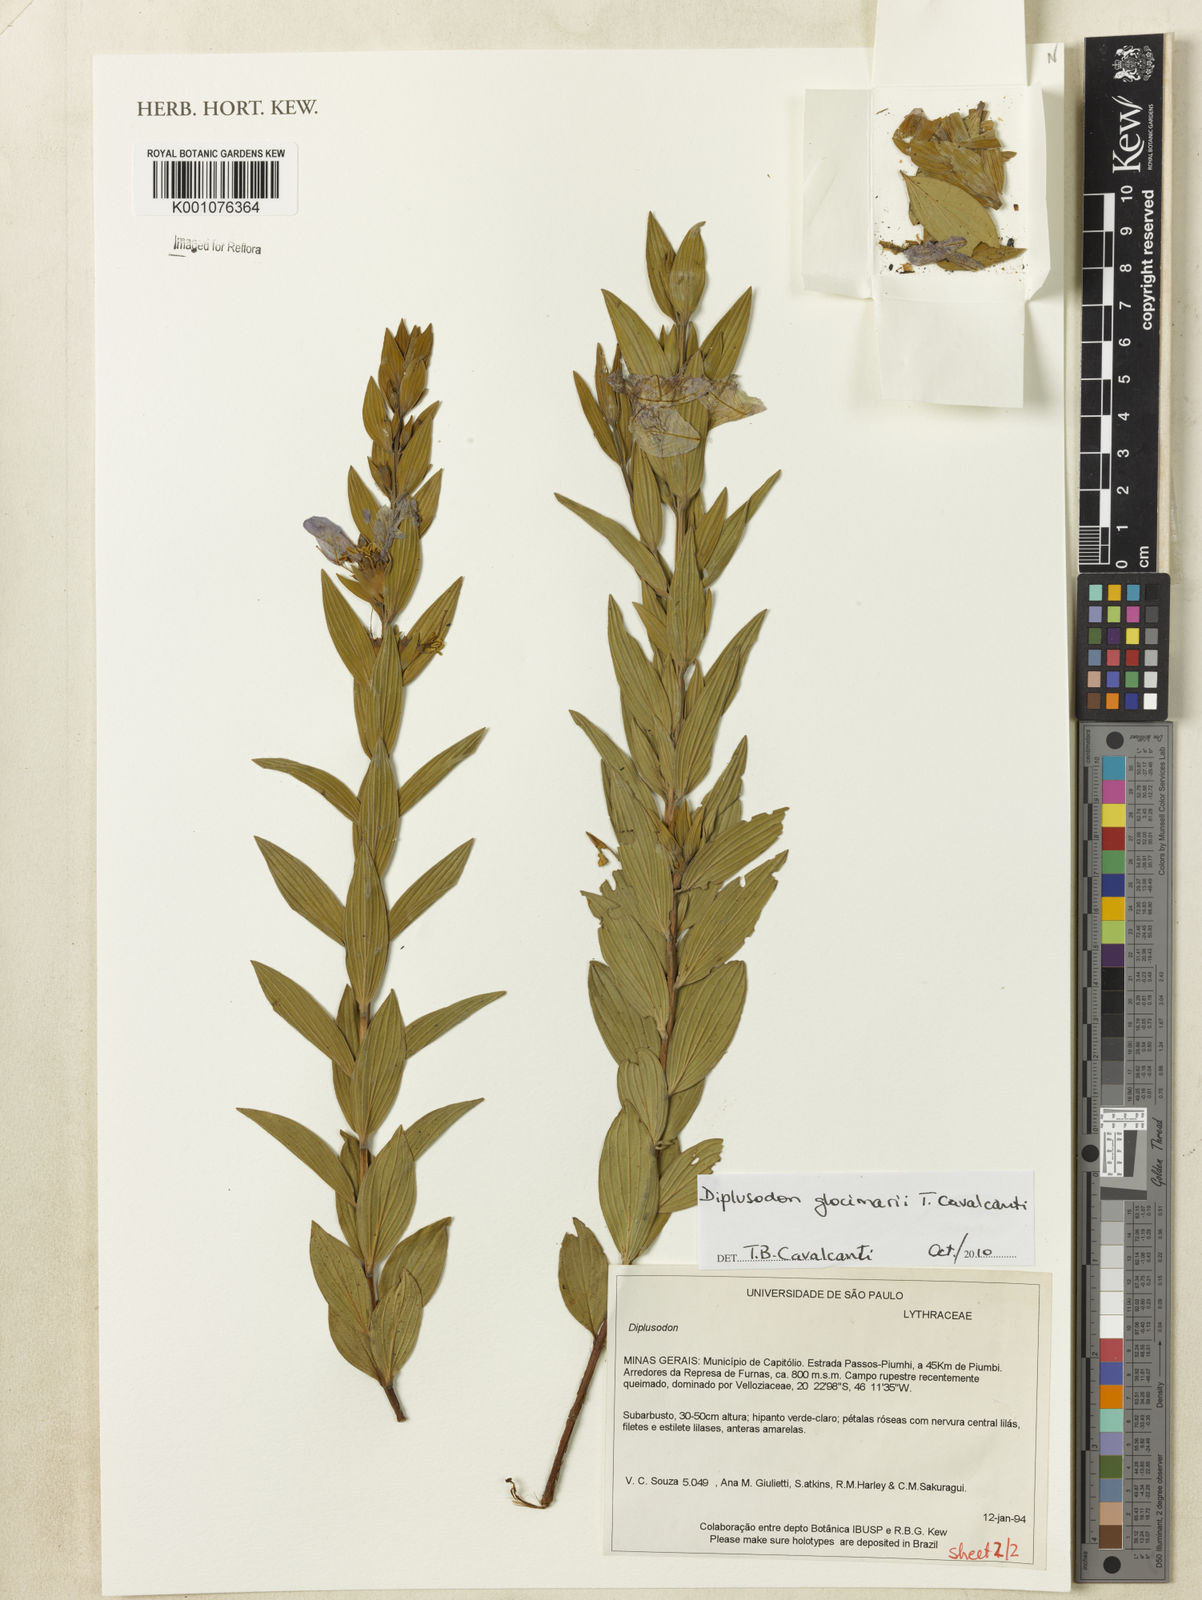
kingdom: Plantae
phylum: Tracheophyta
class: Magnoliopsida
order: Myrtales
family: Lythraceae
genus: Diplusodon
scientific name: Diplusodon glocimarii
